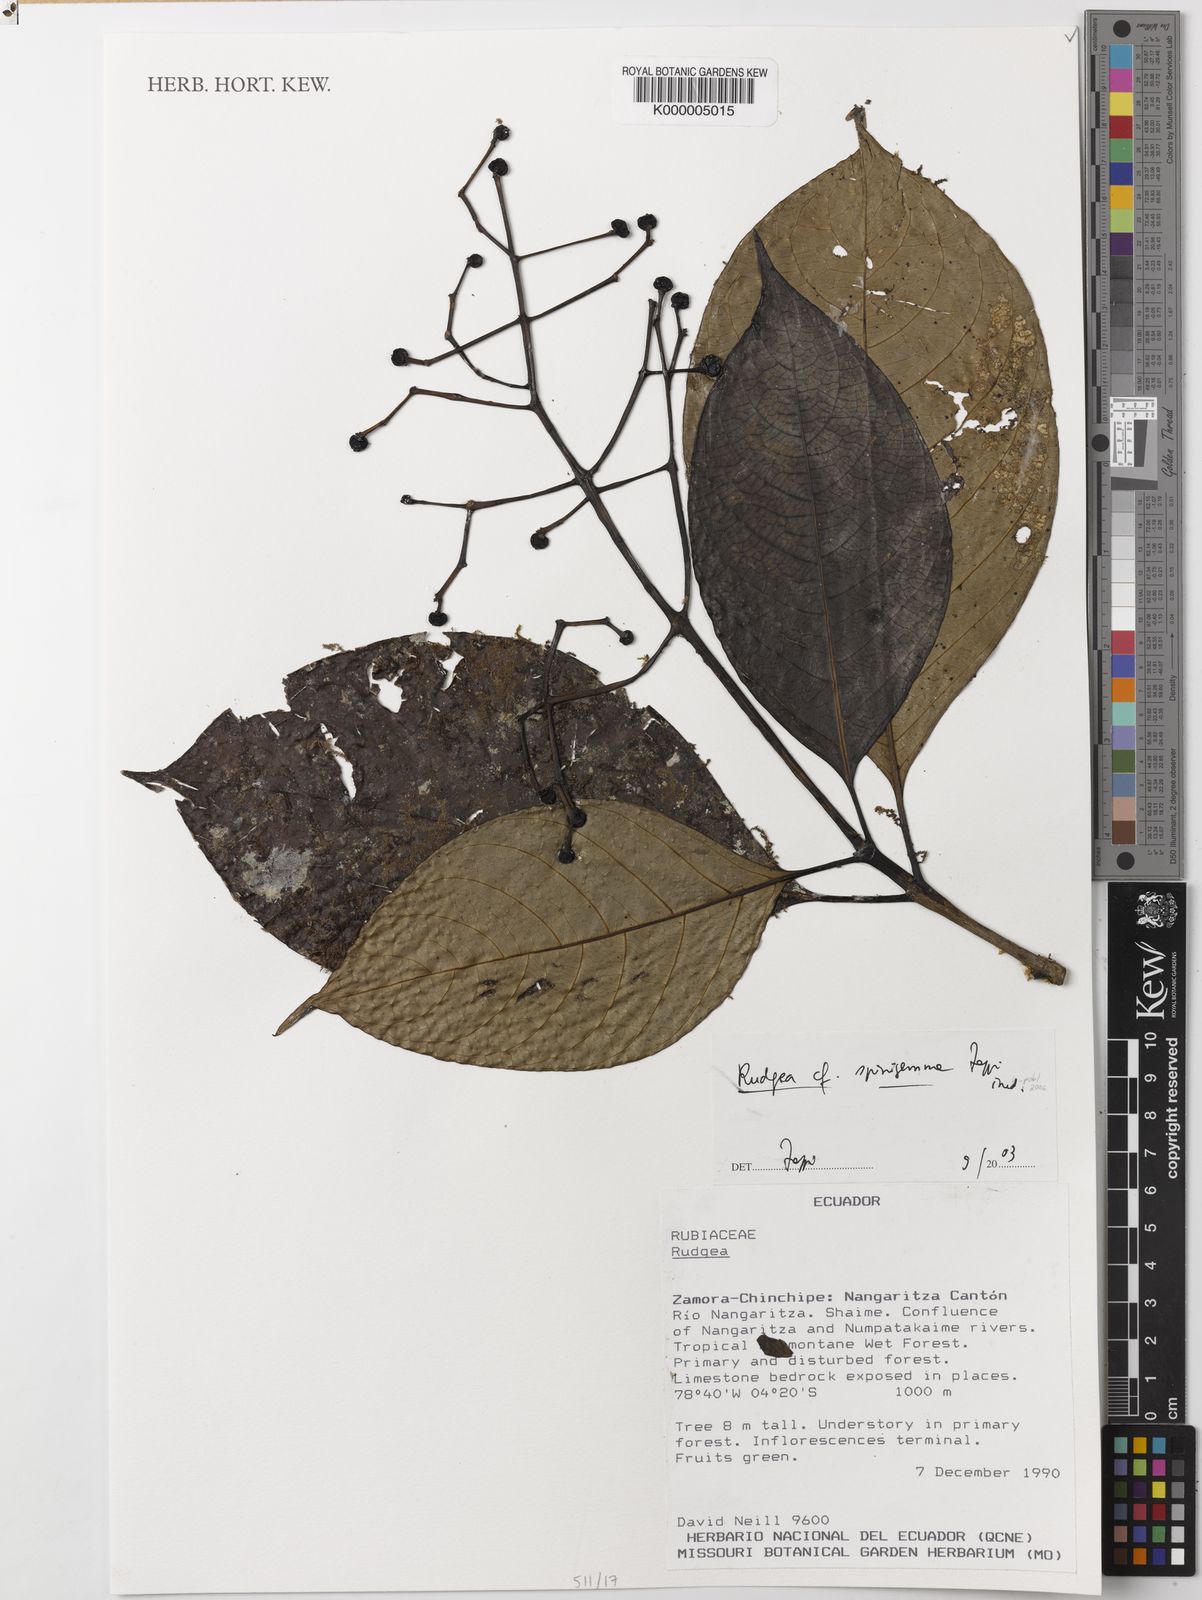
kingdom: Plantae
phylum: Tracheophyta
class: Magnoliopsida
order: Gentianales
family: Rubiaceae
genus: Rudgea
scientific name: Rudgea spinigemma
